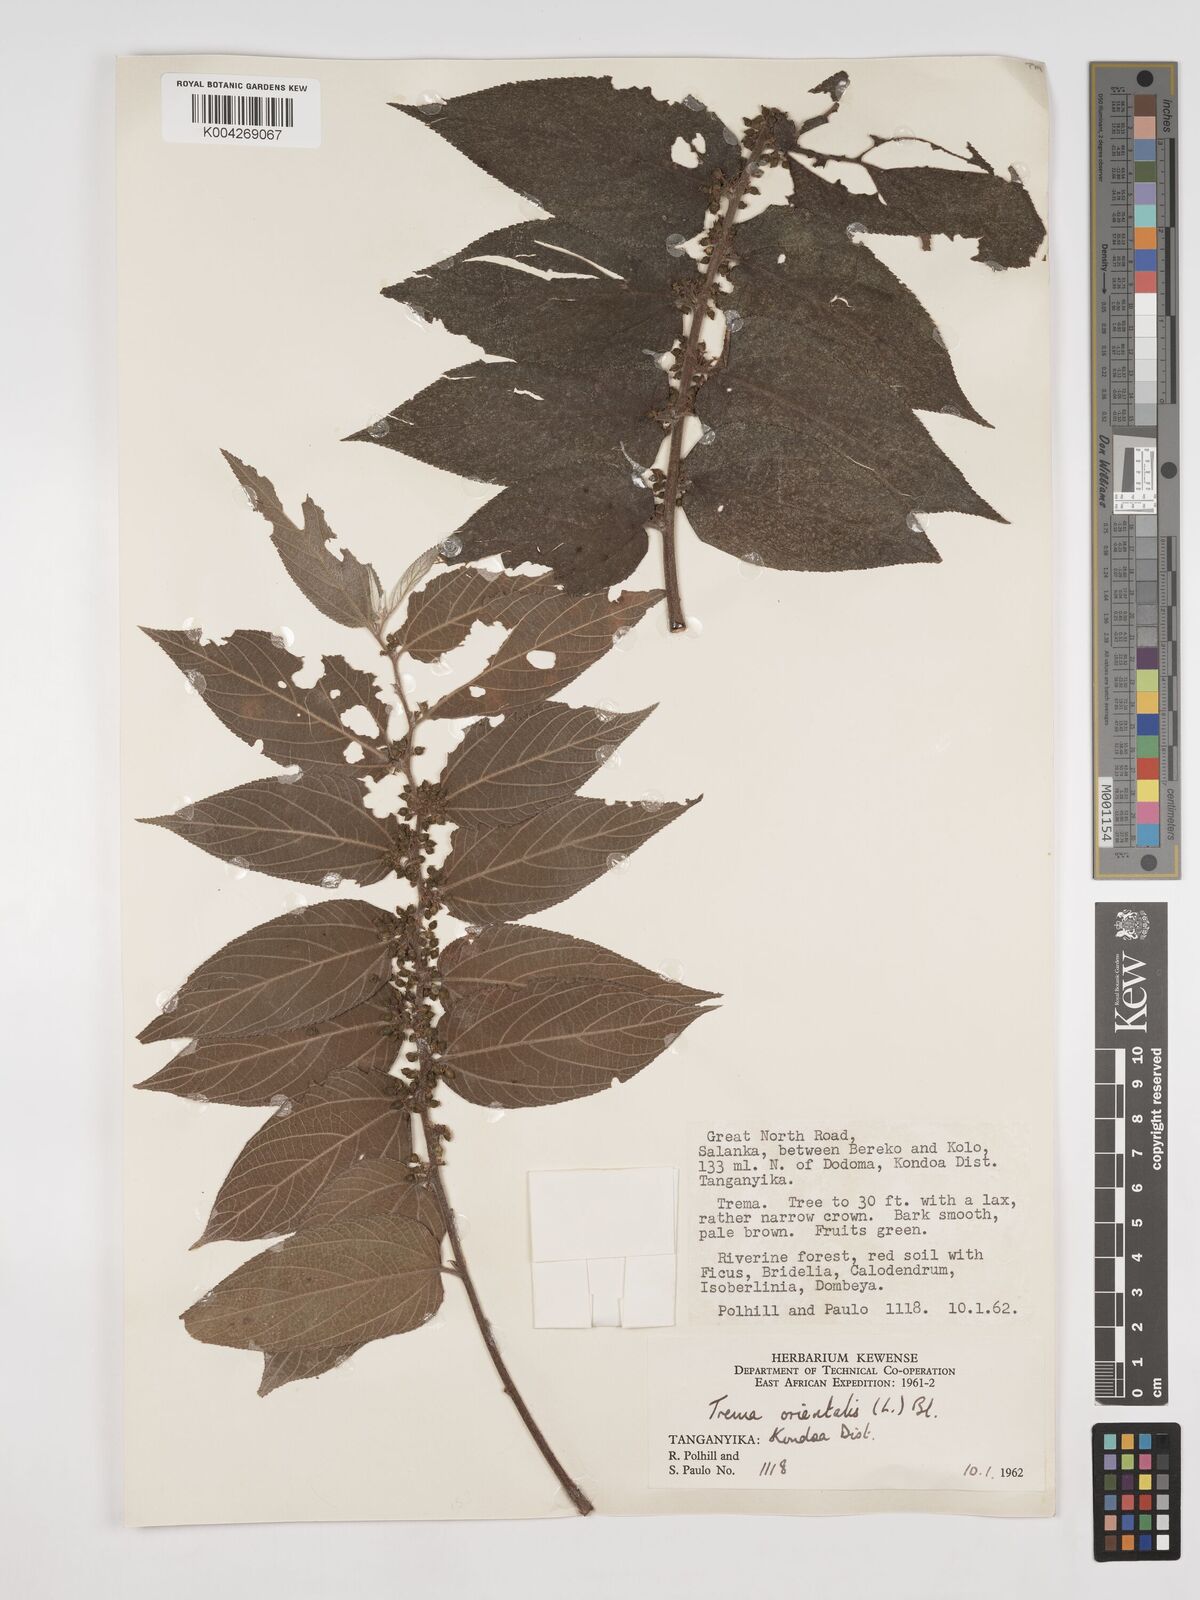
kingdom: Plantae
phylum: Tracheophyta
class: Magnoliopsida
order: Rosales
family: Cannabaceae
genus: Trema
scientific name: Trema orientale
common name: Indian charcoal tree
